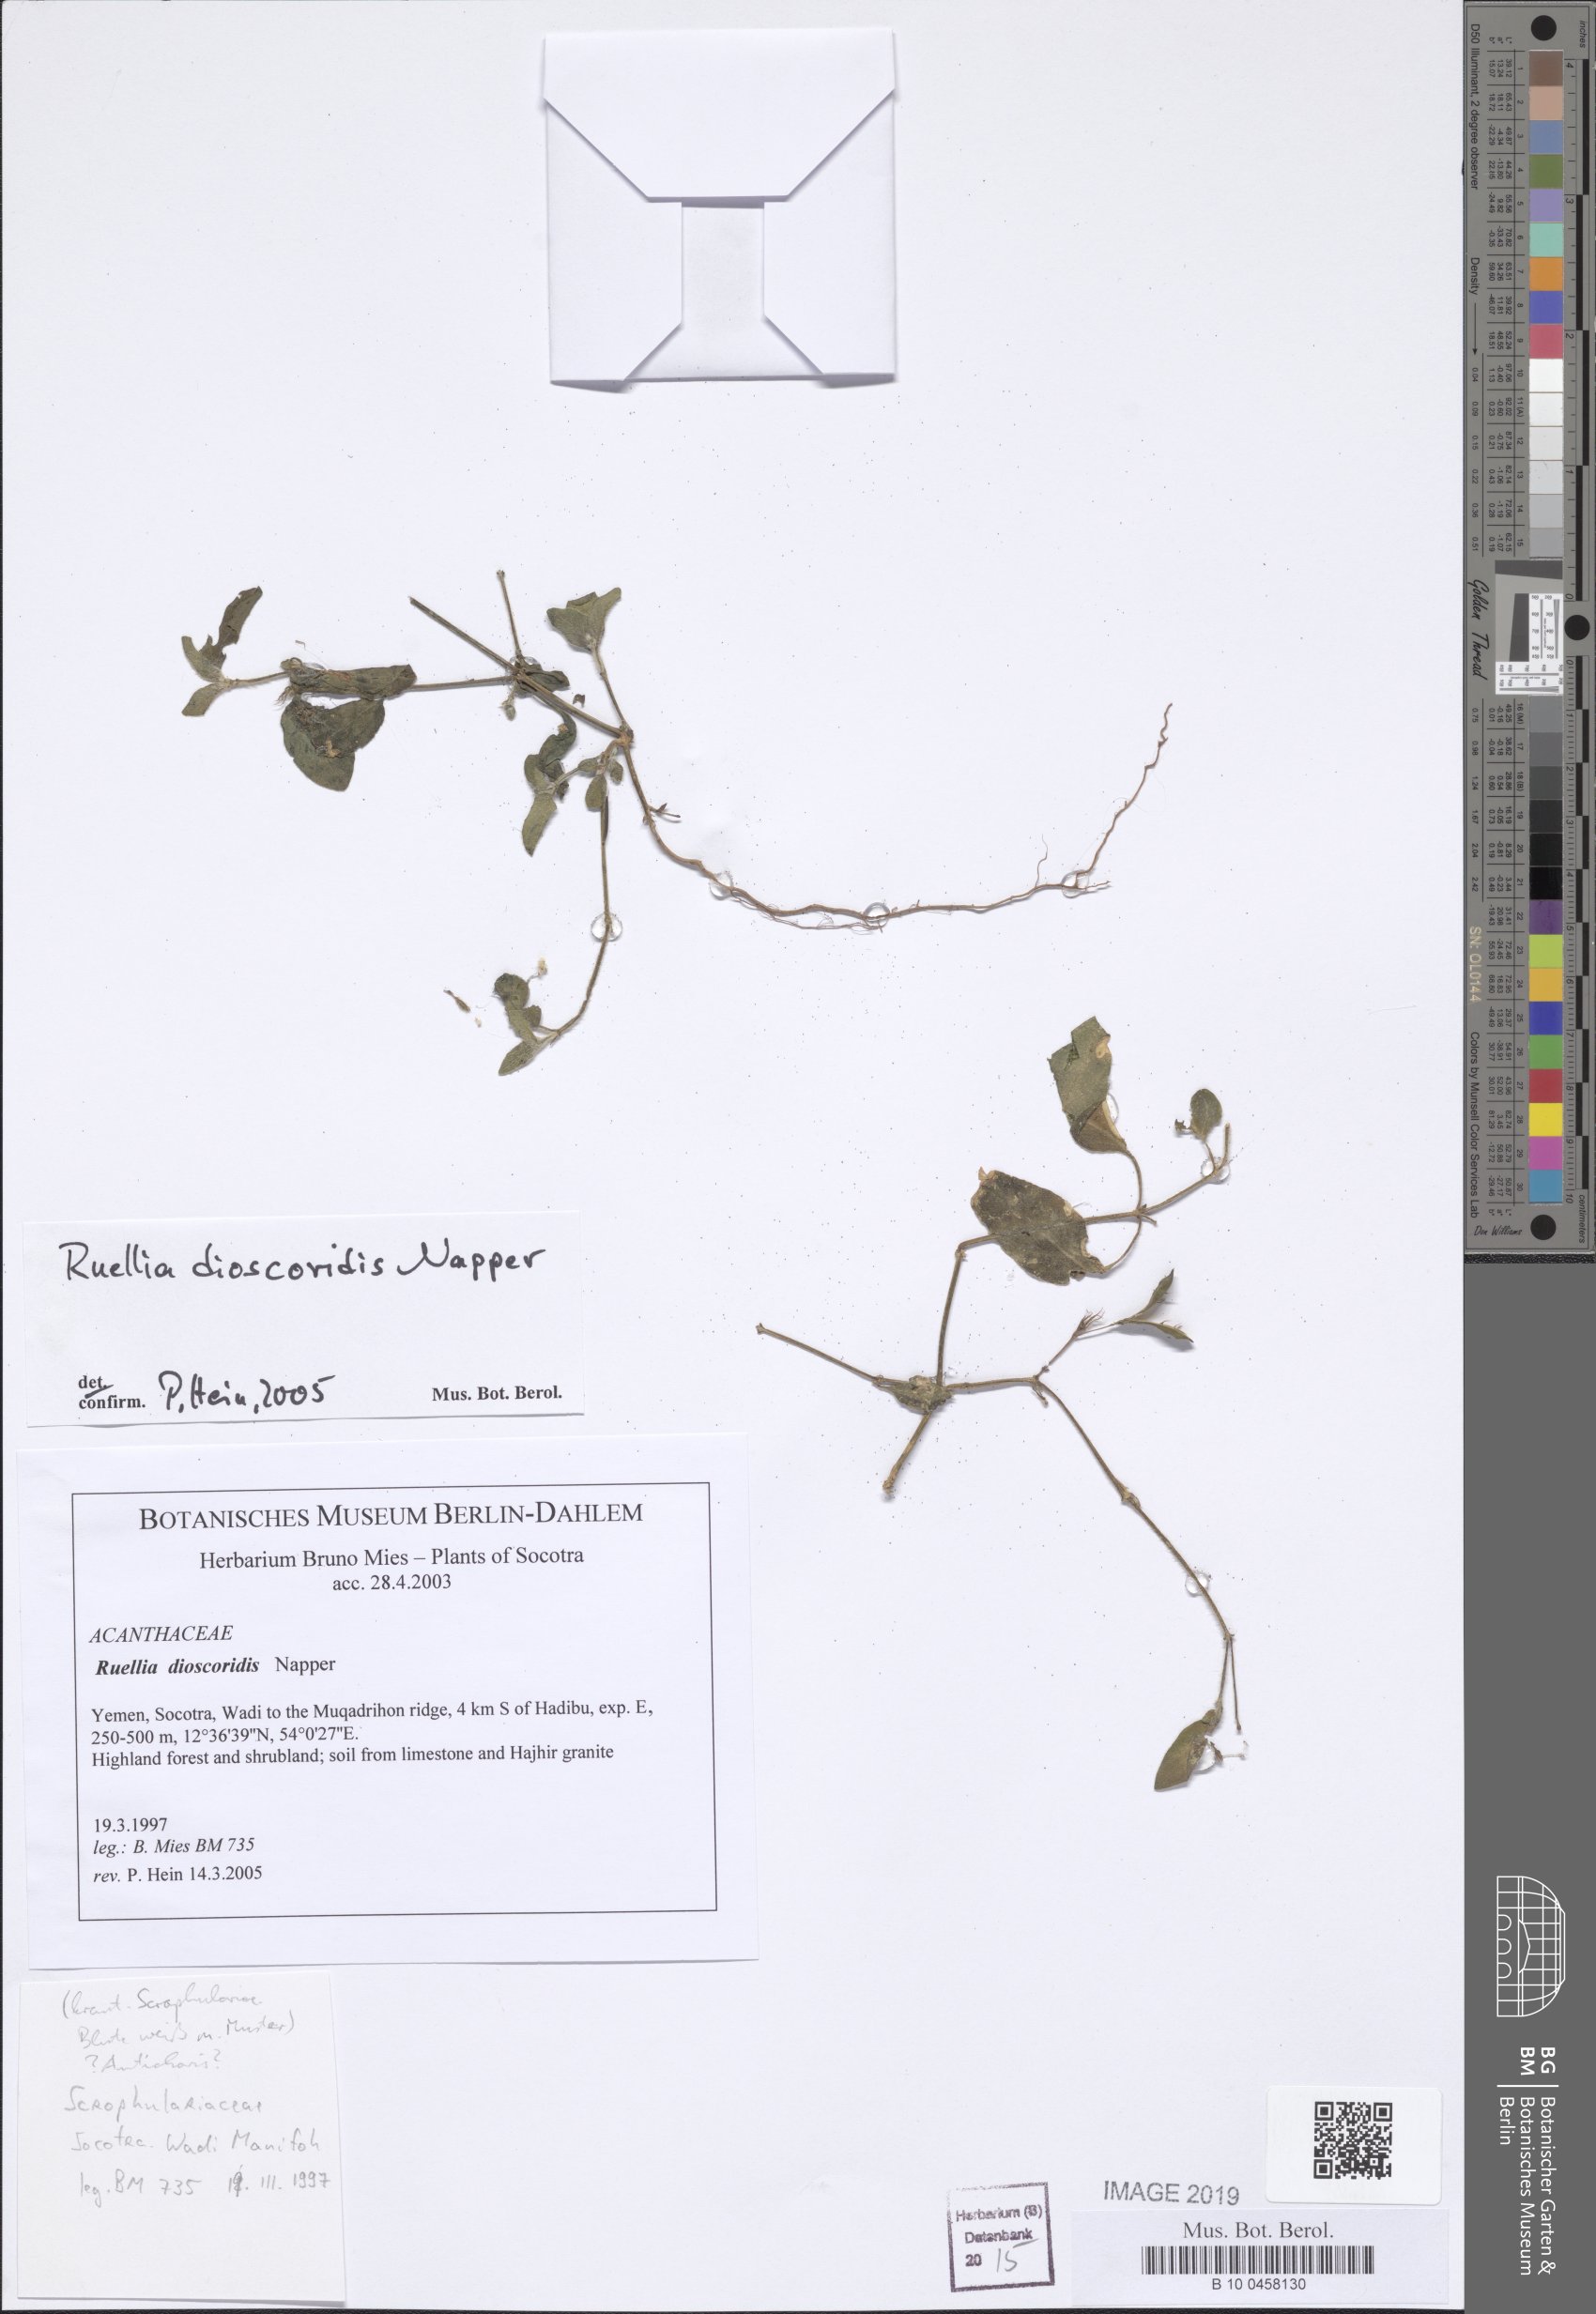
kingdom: Plantae
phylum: Tracheophyta
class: Magnoliopsida
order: Lamiales
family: Acanthaceae
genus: Ruellia
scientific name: Ruellia dioscoridis
